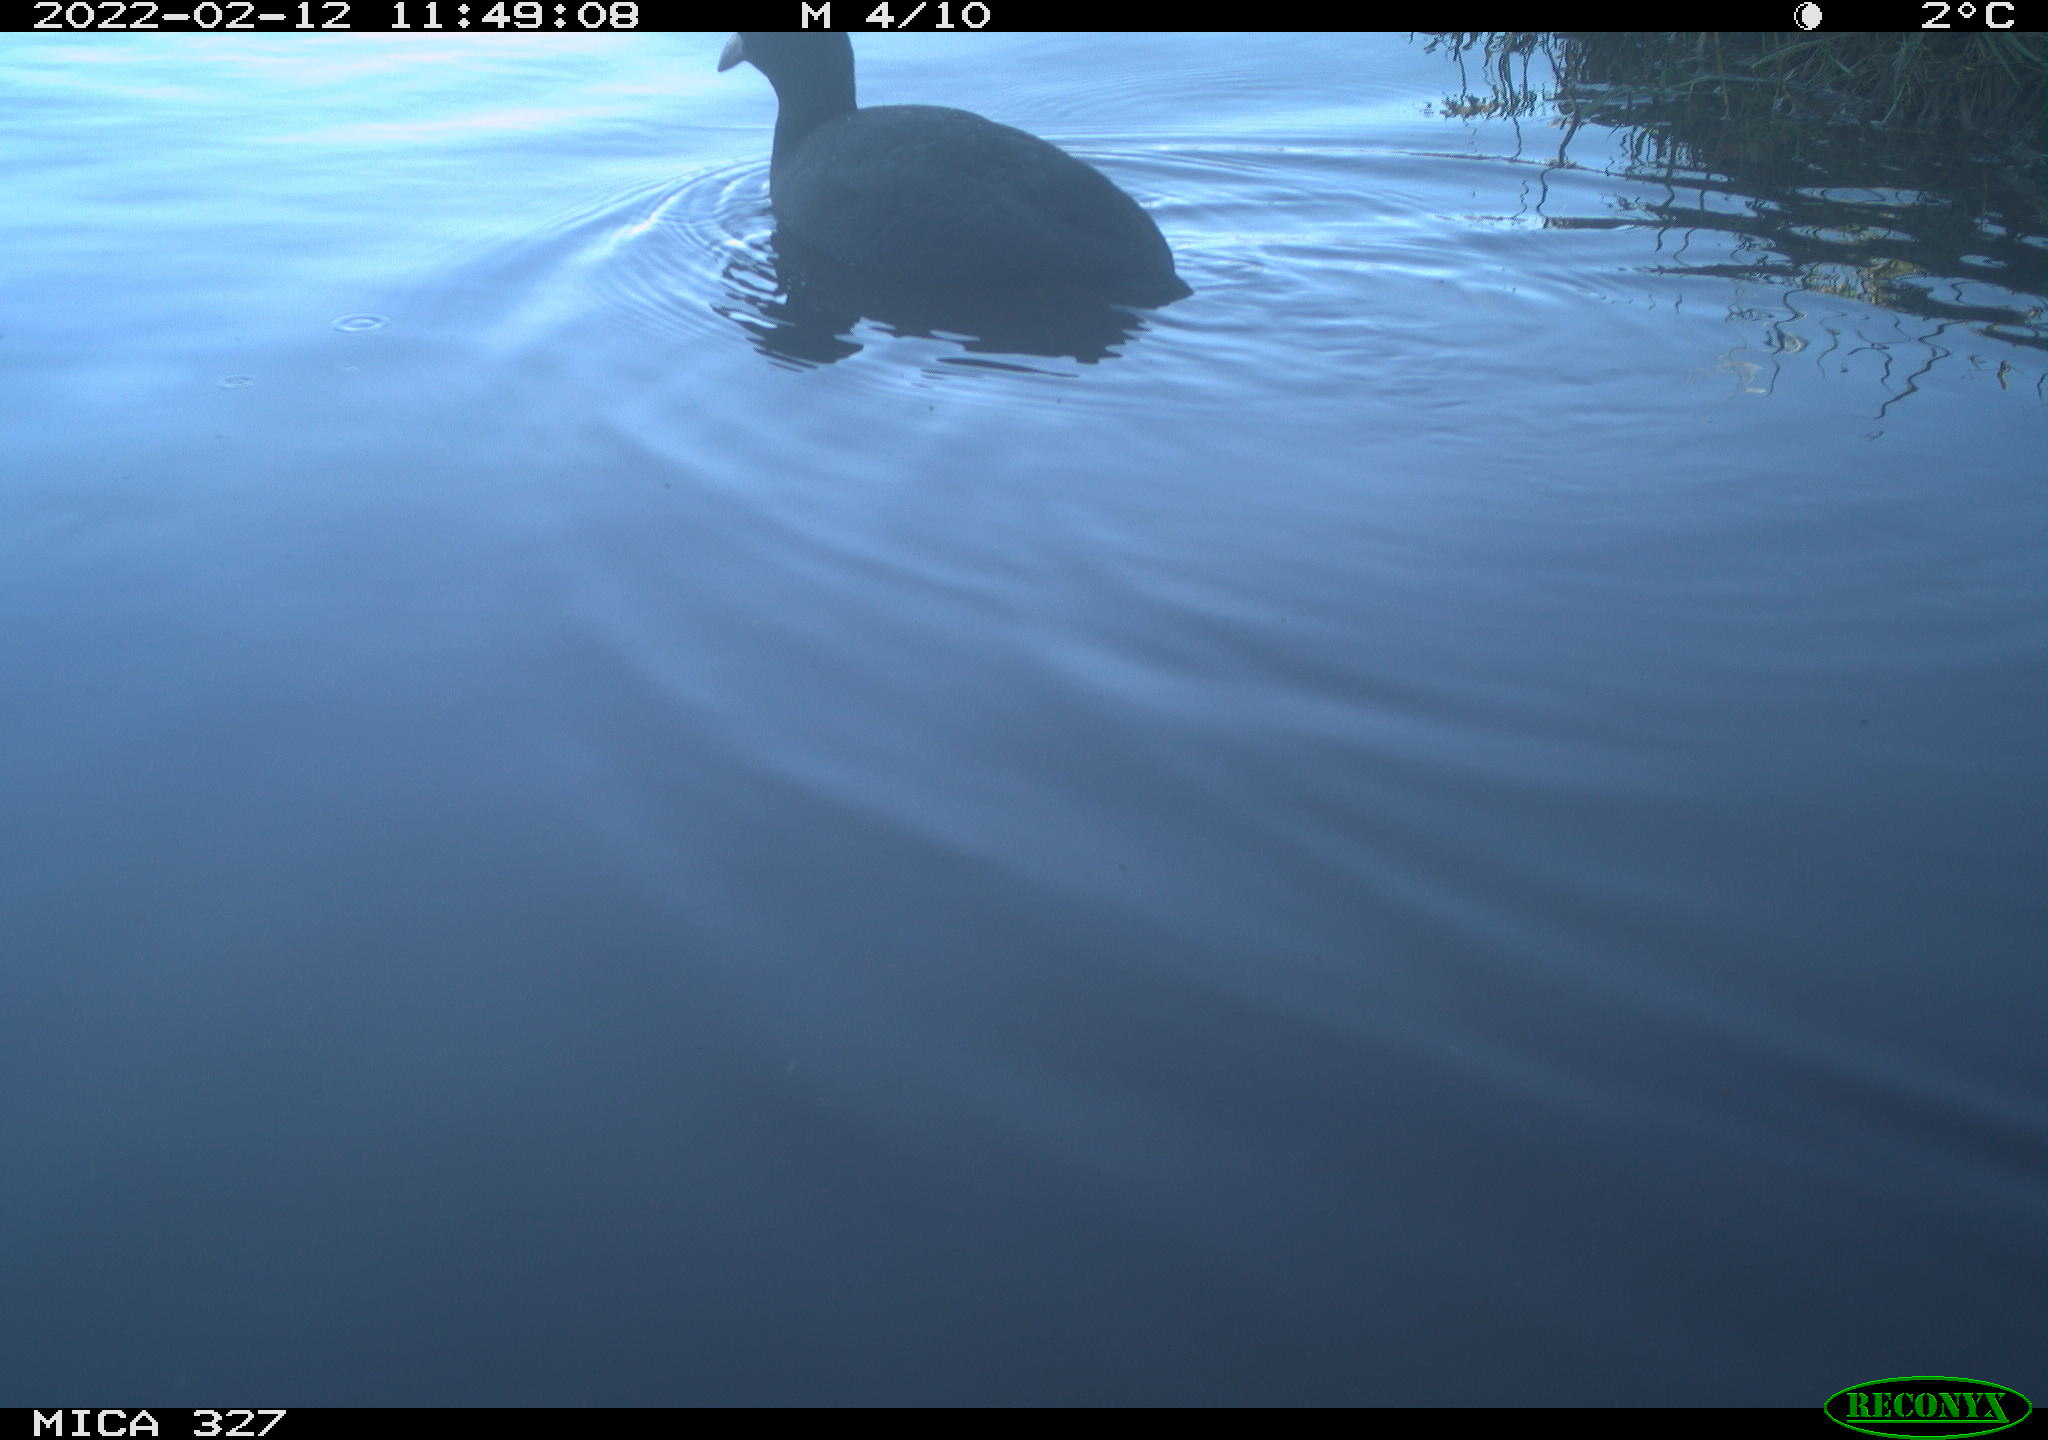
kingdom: Animalia
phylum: Chordata
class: Aves
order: Gruiformes
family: Rallidae
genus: Fulica
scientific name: Fulica atra
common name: Eurasian coot
